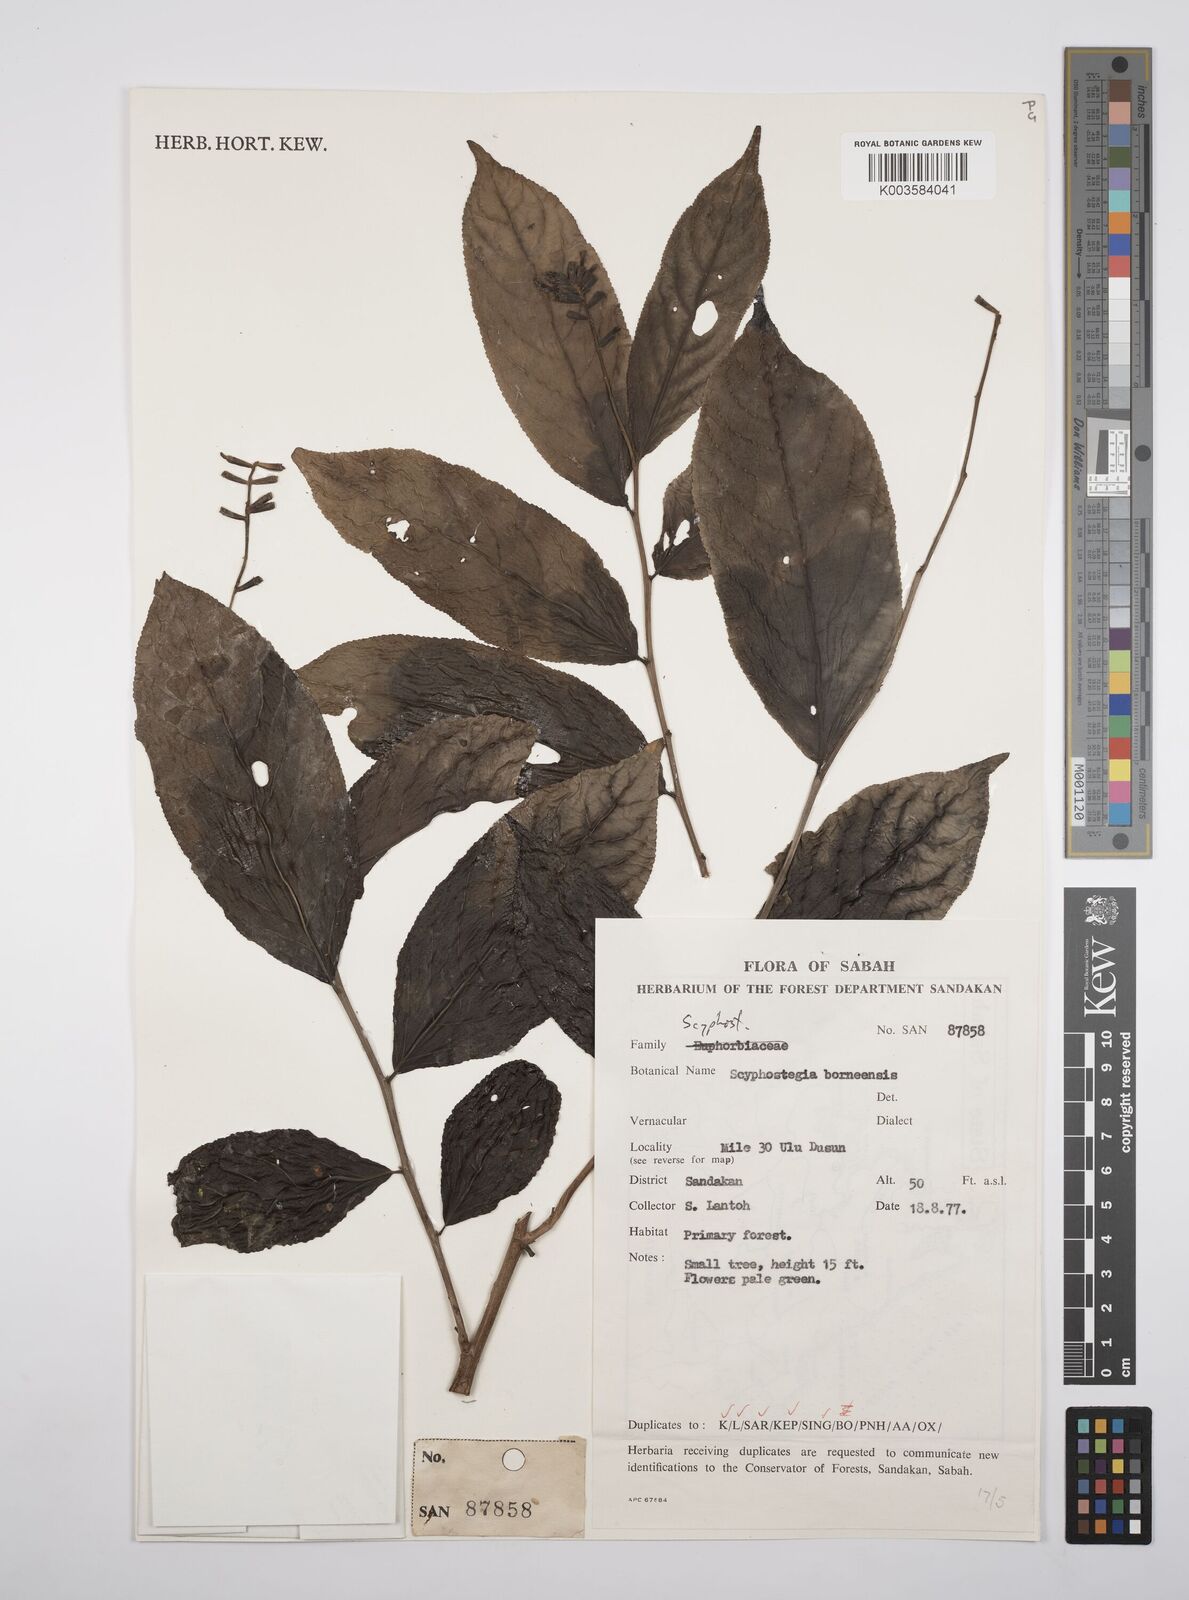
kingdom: Plantae
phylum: Tracheophyta
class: Magnoliopsida
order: Malpighiales
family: Salicaceae
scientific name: Salicaceae
